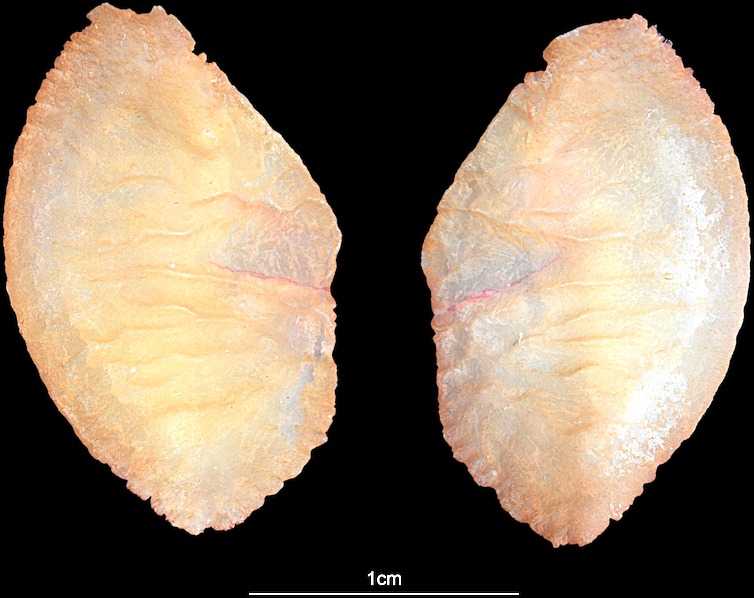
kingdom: Animalia
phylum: Chordata
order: Perciformes
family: Lutjanidae
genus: Lutjanus
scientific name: Lutjanus
